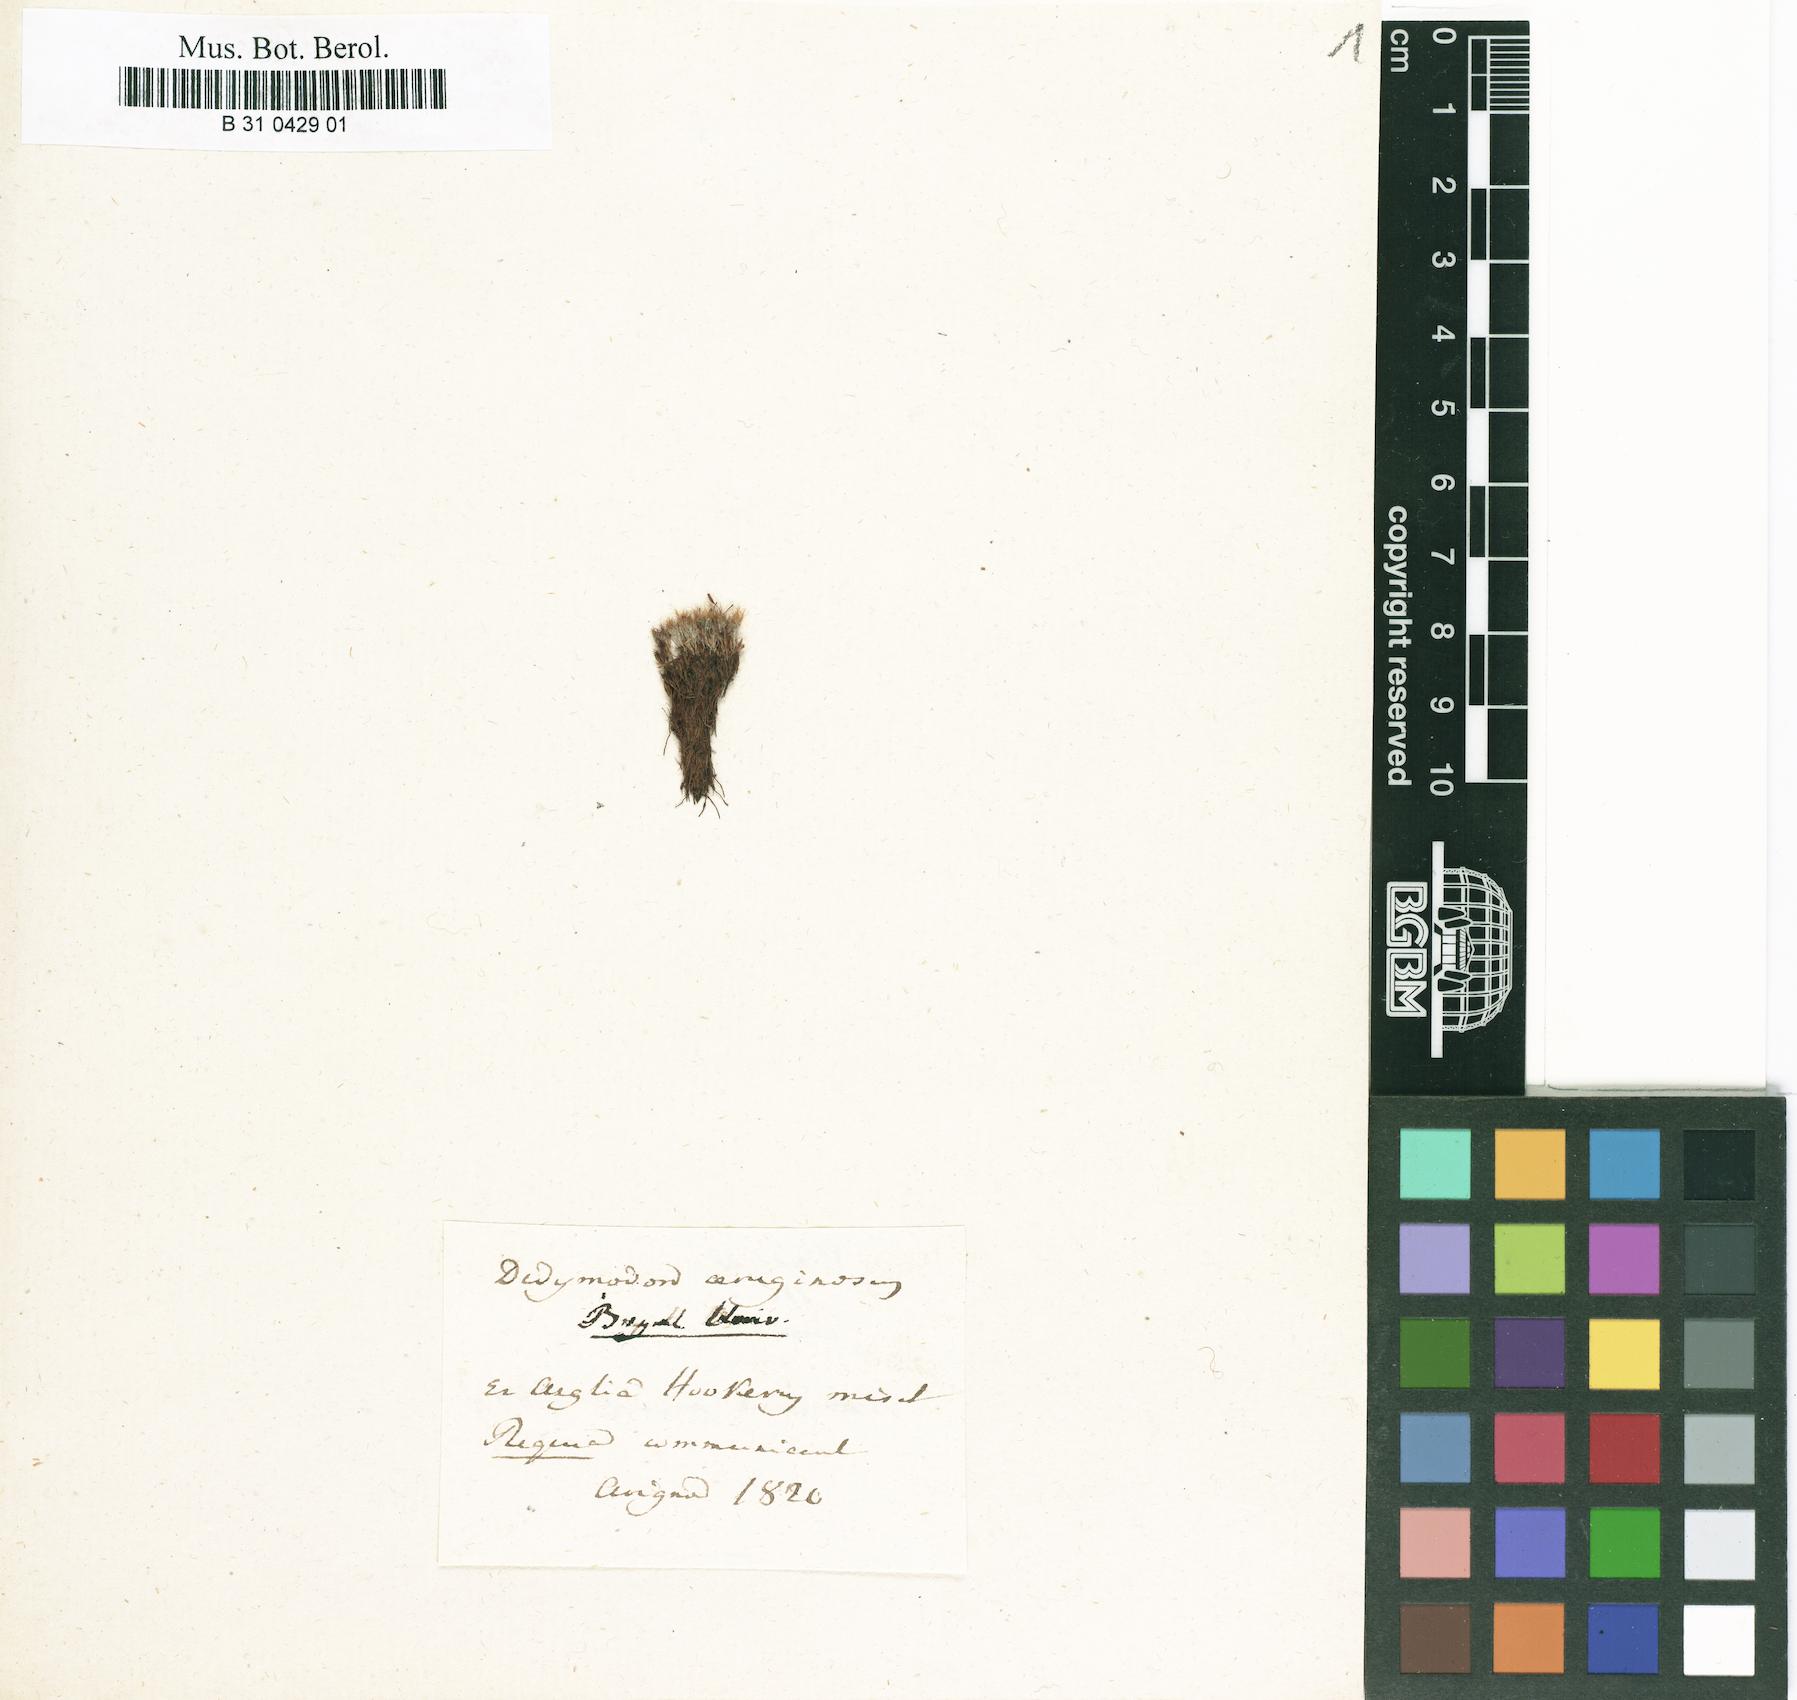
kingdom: Plantae
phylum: Bryophyta
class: Bryopsida
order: Grimmiales
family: Saelaniaceae
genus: Saelania
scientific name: Saelania glaucescens
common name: Blue dew-moss
